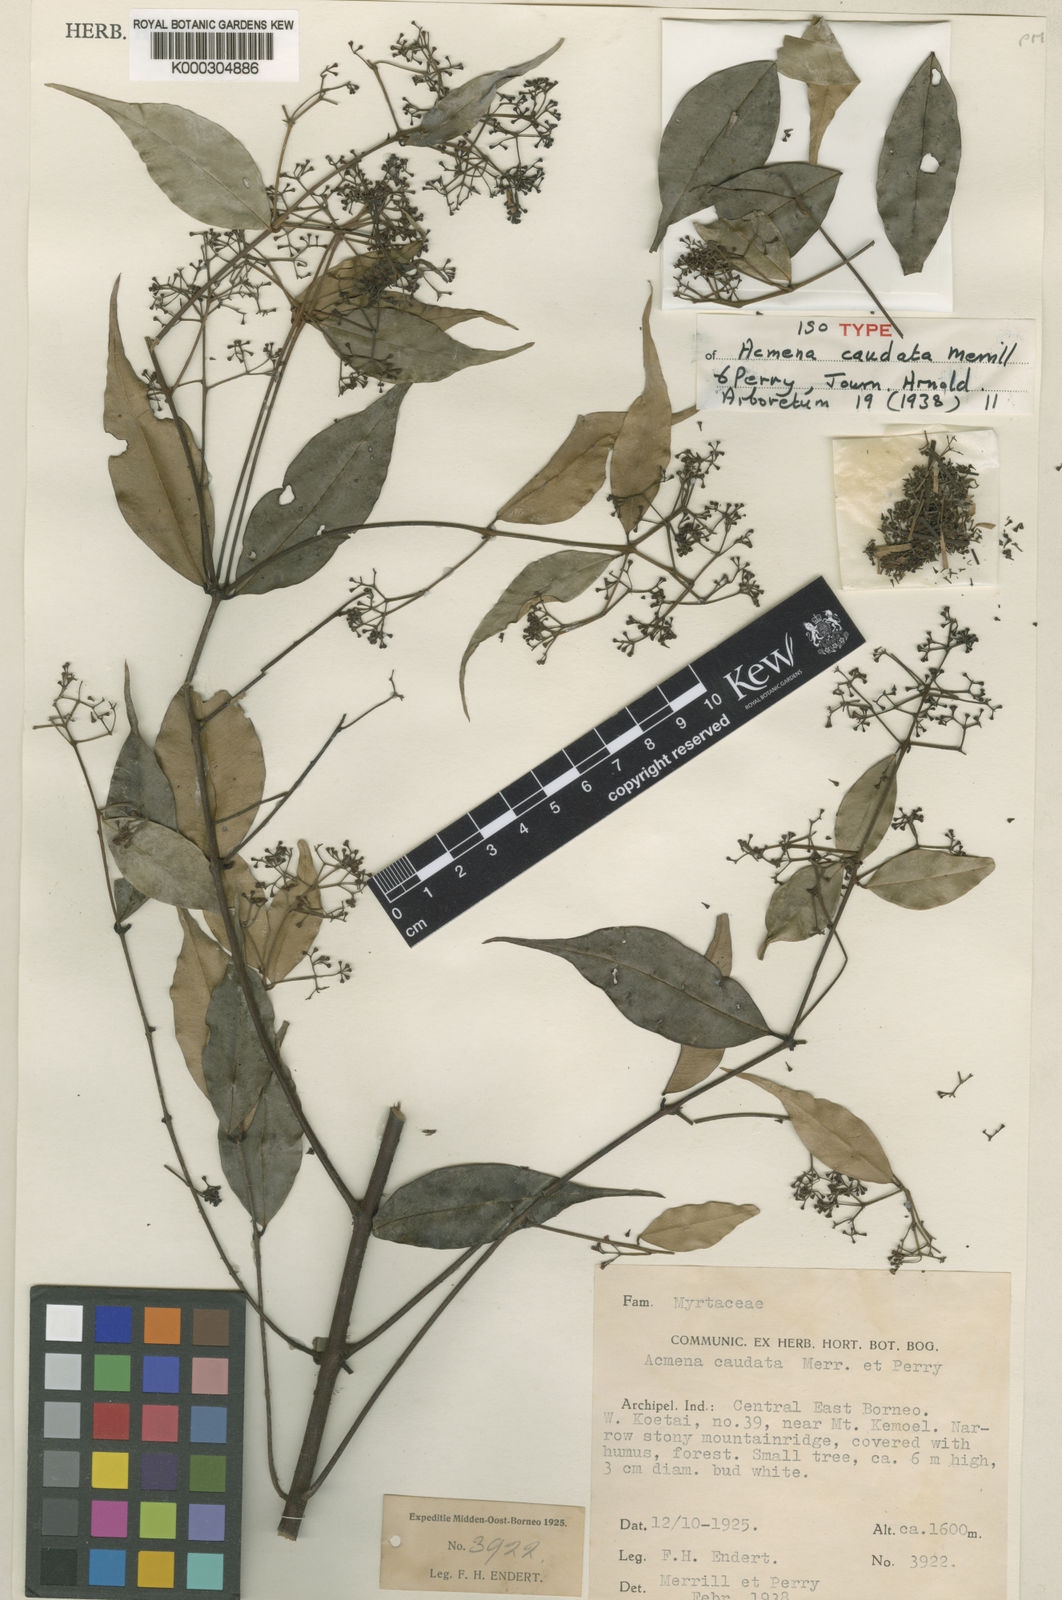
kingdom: Plantae
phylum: Tracheophyta
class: Magnoliopsida
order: Myrtales
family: Myrtaceae
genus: Syzygium
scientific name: Syzygium piluliferum
